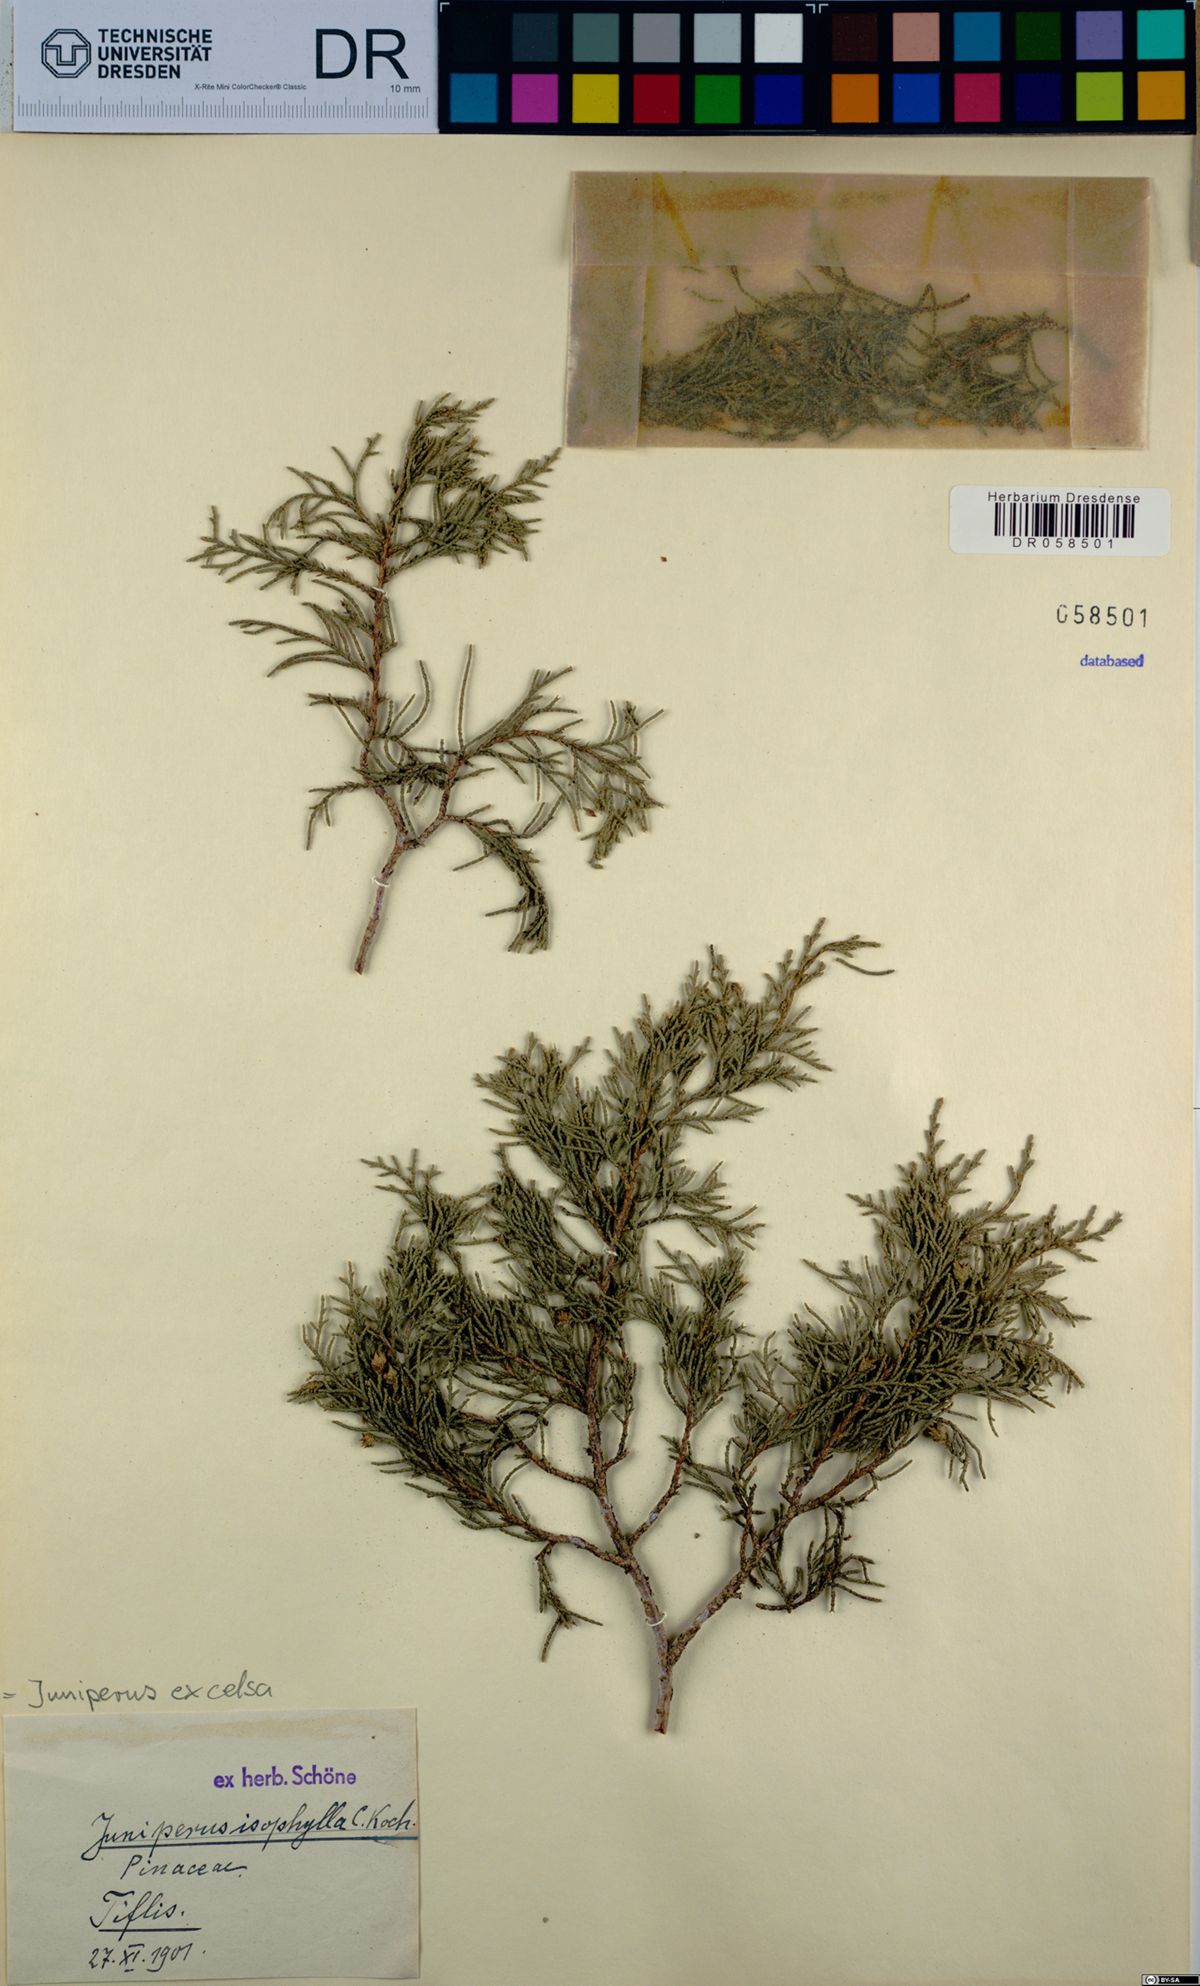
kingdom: Plantae
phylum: Tracheophyta
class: Pinopsida
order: Pinales
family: Cupressaceae
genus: Juniperus
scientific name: Juniperus excelsa
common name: Crimean juniper
